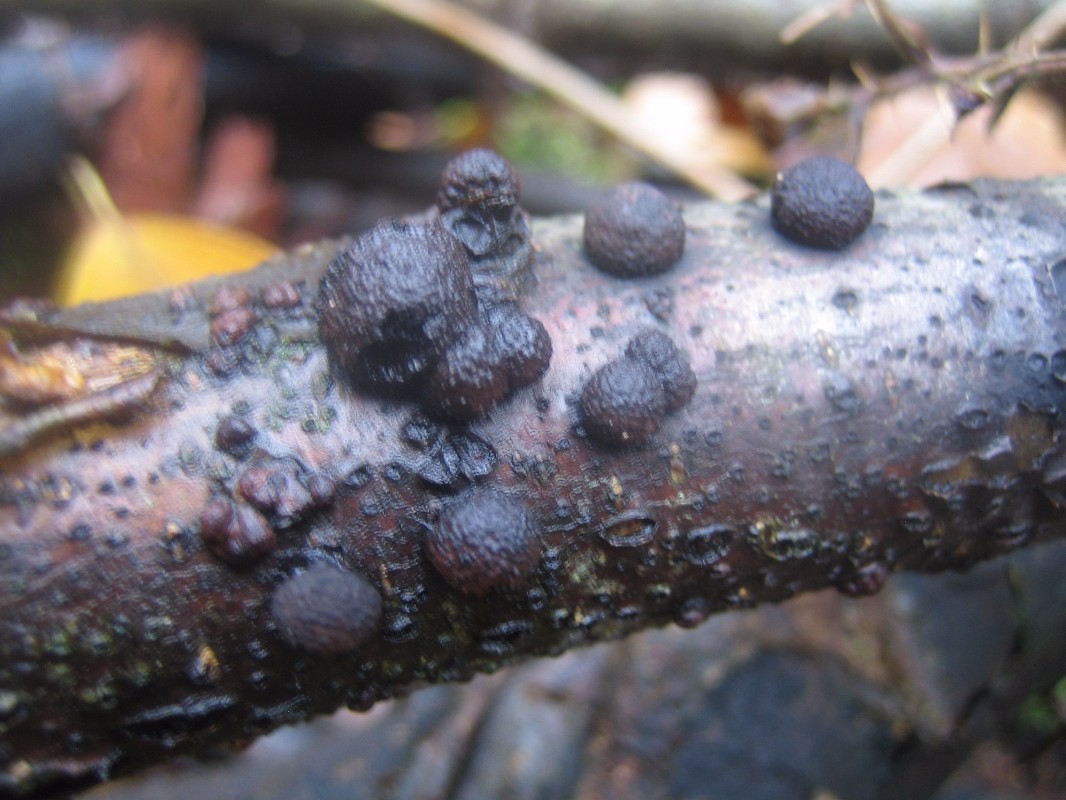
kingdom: Fungi
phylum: Ascomycota
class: Sordariomycetes
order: Xylariales
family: Hypoxylaceae
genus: Hypoxylon
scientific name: Hypoxylon fragiforme
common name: kuljordbær
